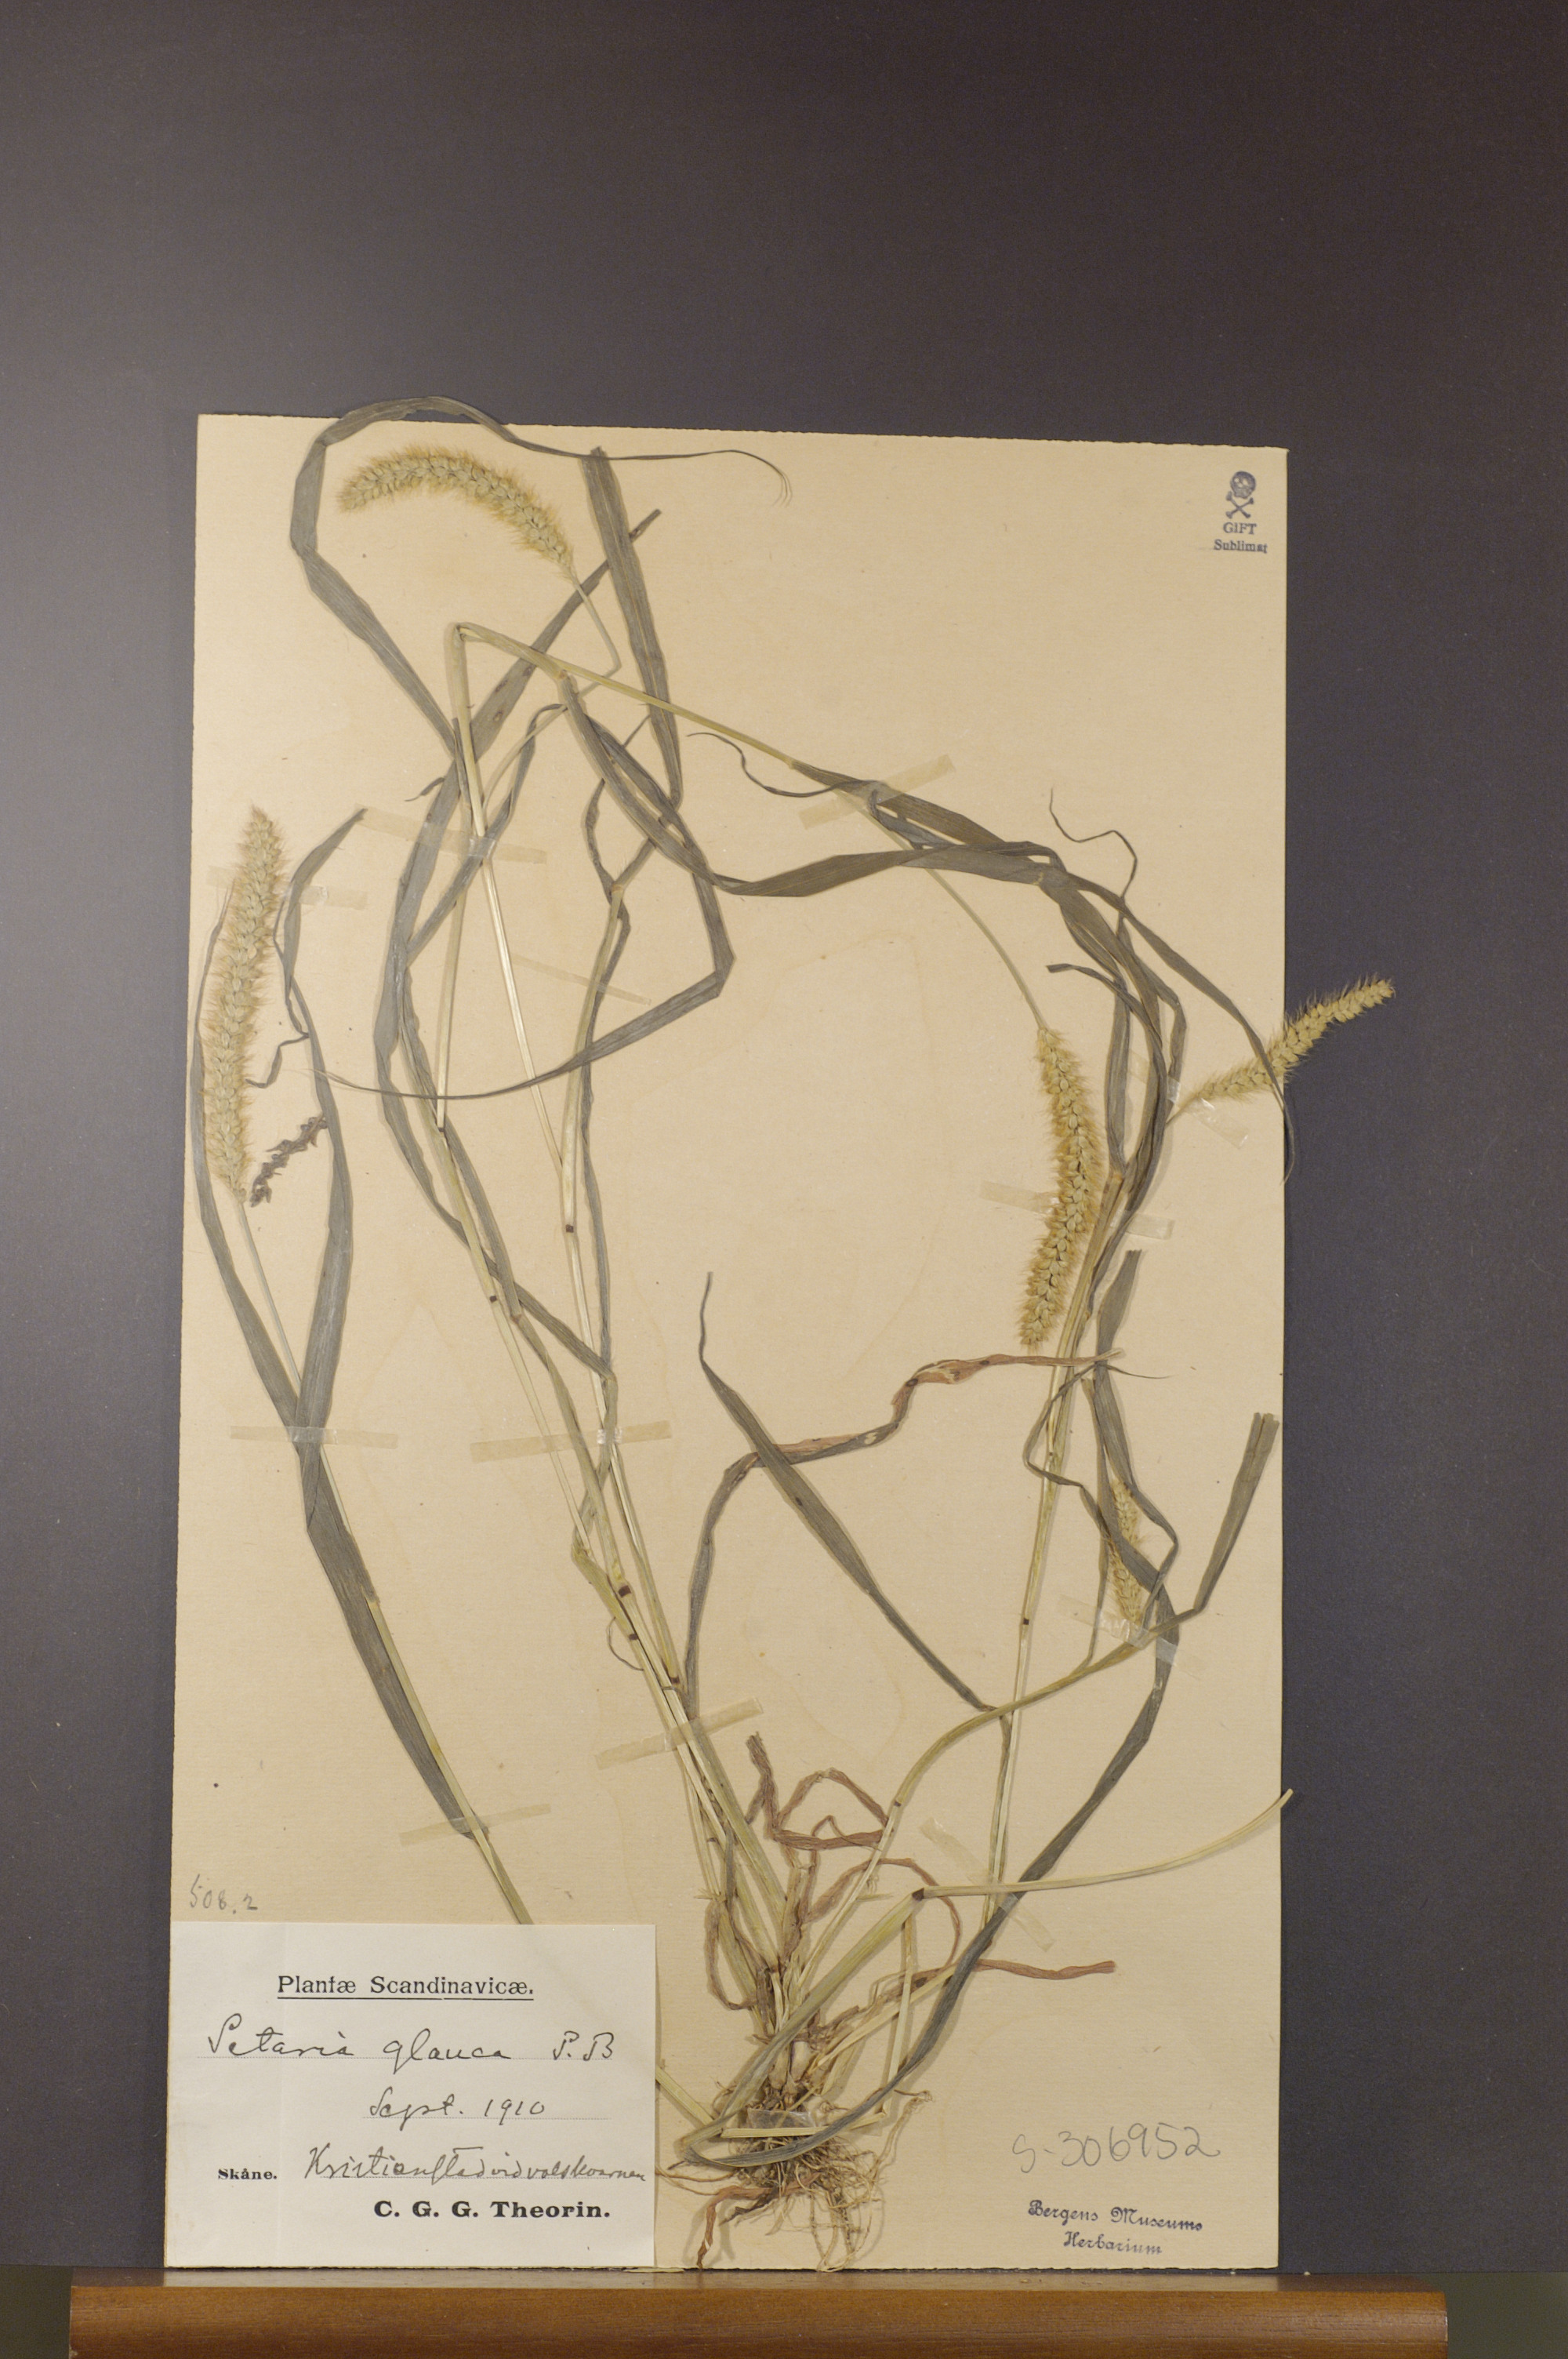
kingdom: Plantae
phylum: Tracheophyta
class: Liliopsida
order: Poales
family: Poaceae
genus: Setaria
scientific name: Setaria pumila
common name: Yellow bristle-grass
